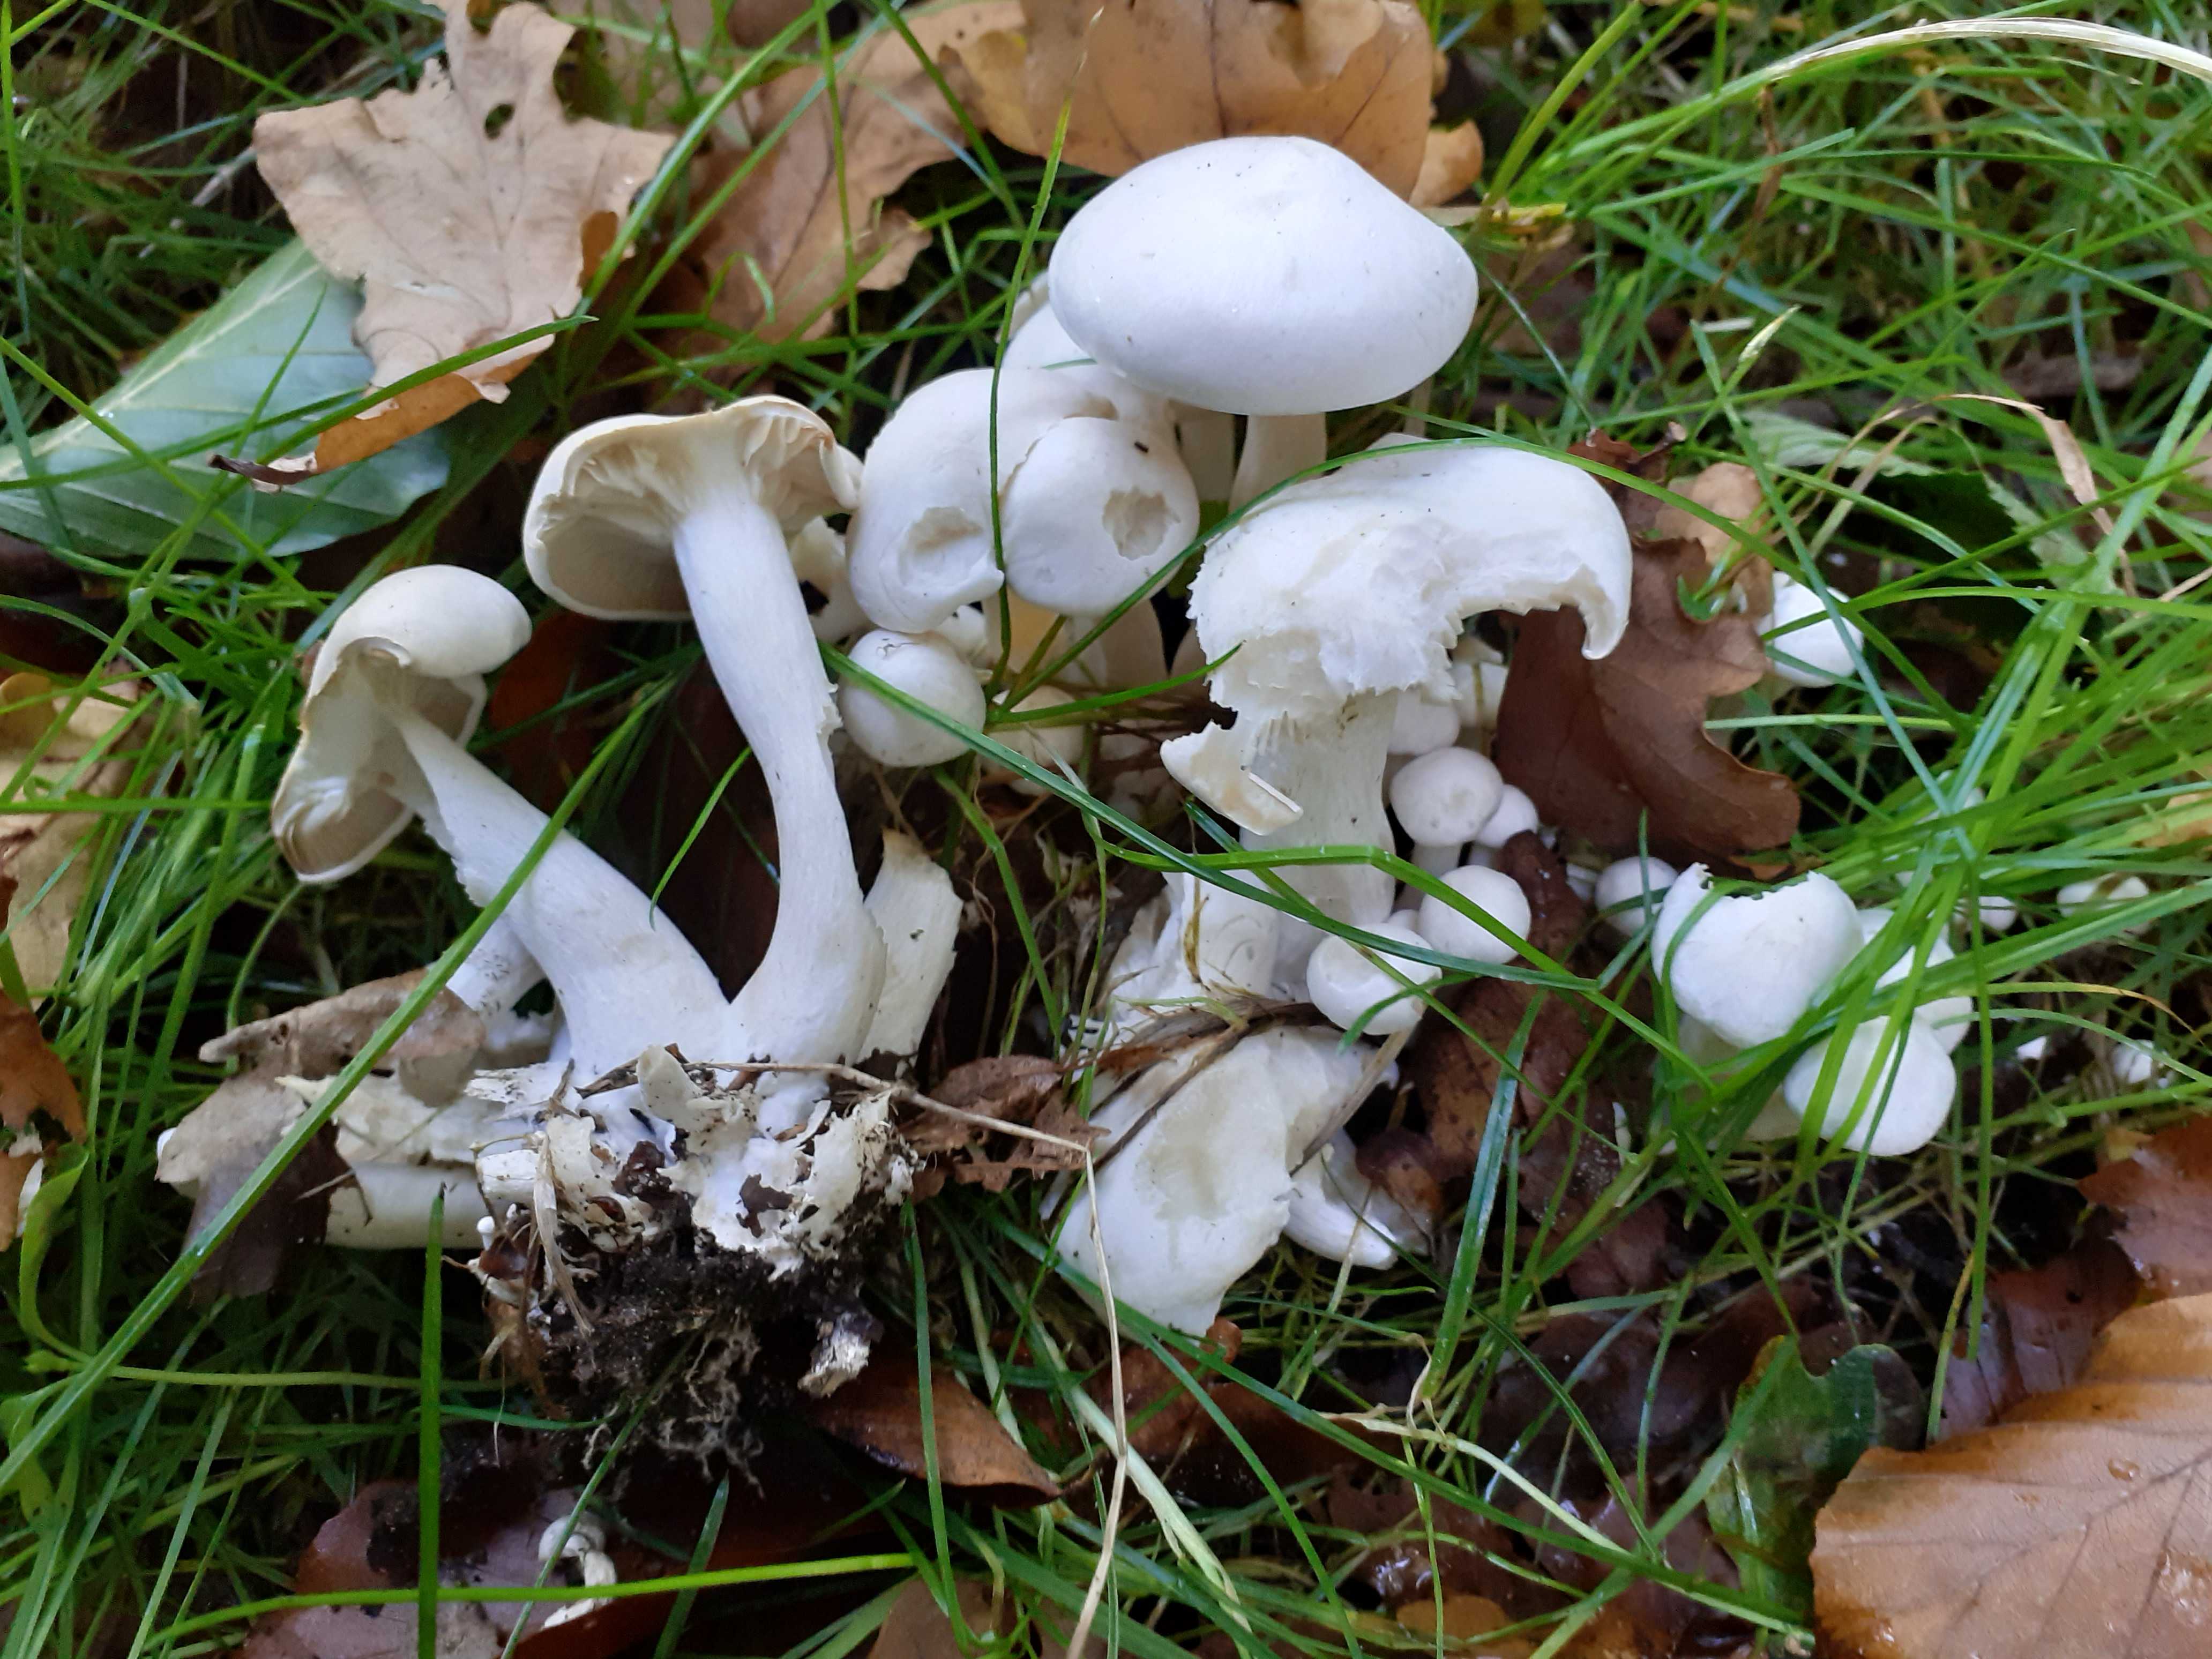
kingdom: Fungi
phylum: Basidiomycota
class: Agaricomycetes
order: Agaricales
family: Tricholomataceae
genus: Leucocybe
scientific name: Leucocybe connata
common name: knippe-tragthat
